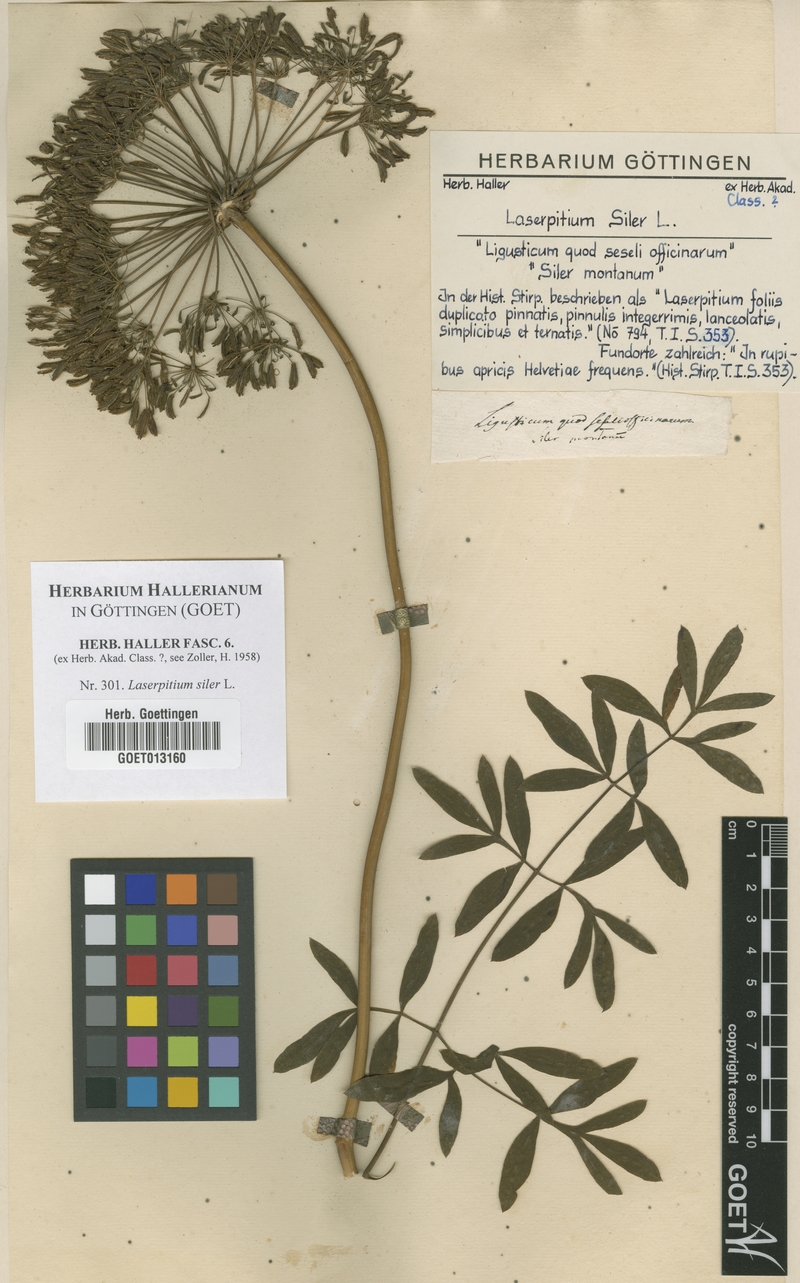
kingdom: Plantae
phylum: Tracheophyta
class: Magnoliopsida
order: Apiales
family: Apiaceae
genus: Siler
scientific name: Siler montanum
